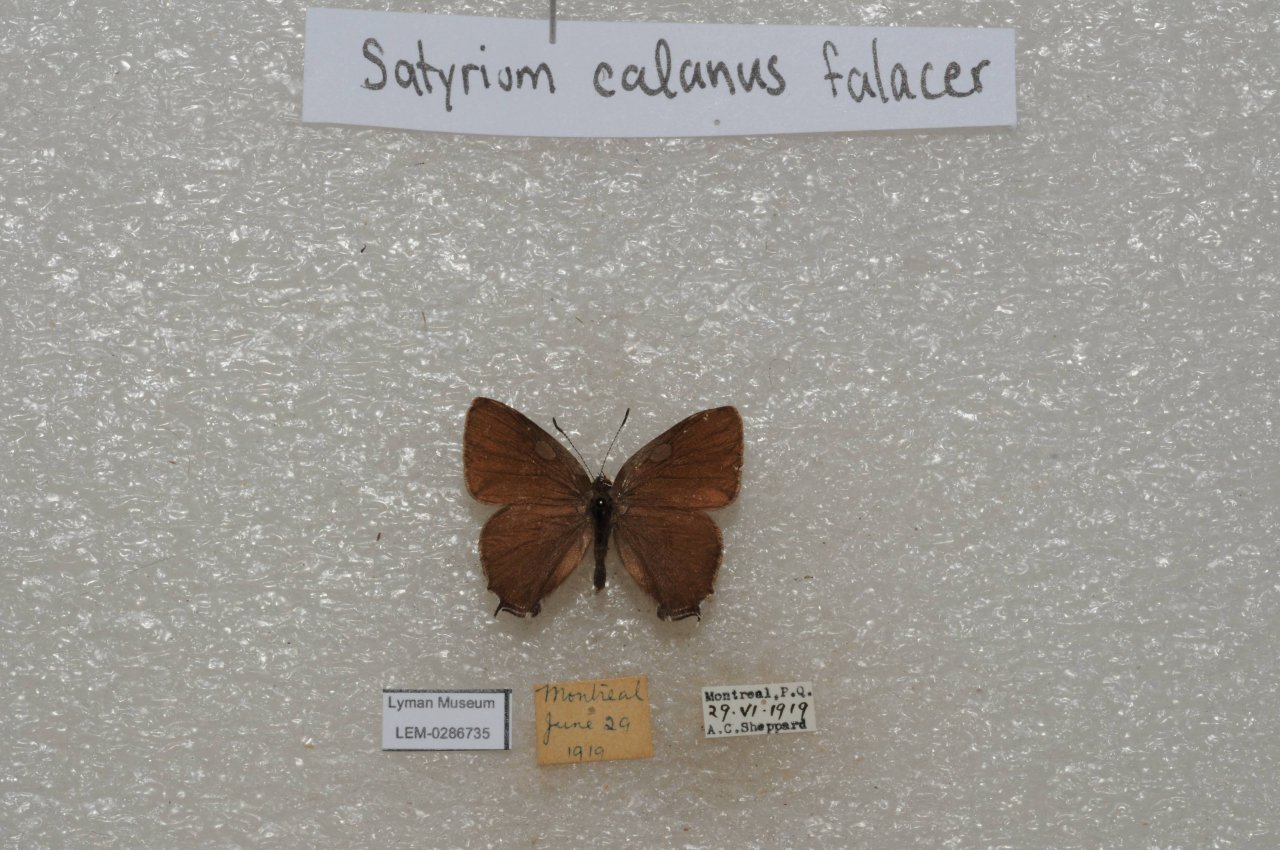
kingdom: Animalia
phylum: Arthropoda
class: Insecta
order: Lepidoptera
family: Lycaenidae
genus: Satyrium
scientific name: Satyrium calanus
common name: Banded Hairstreak
